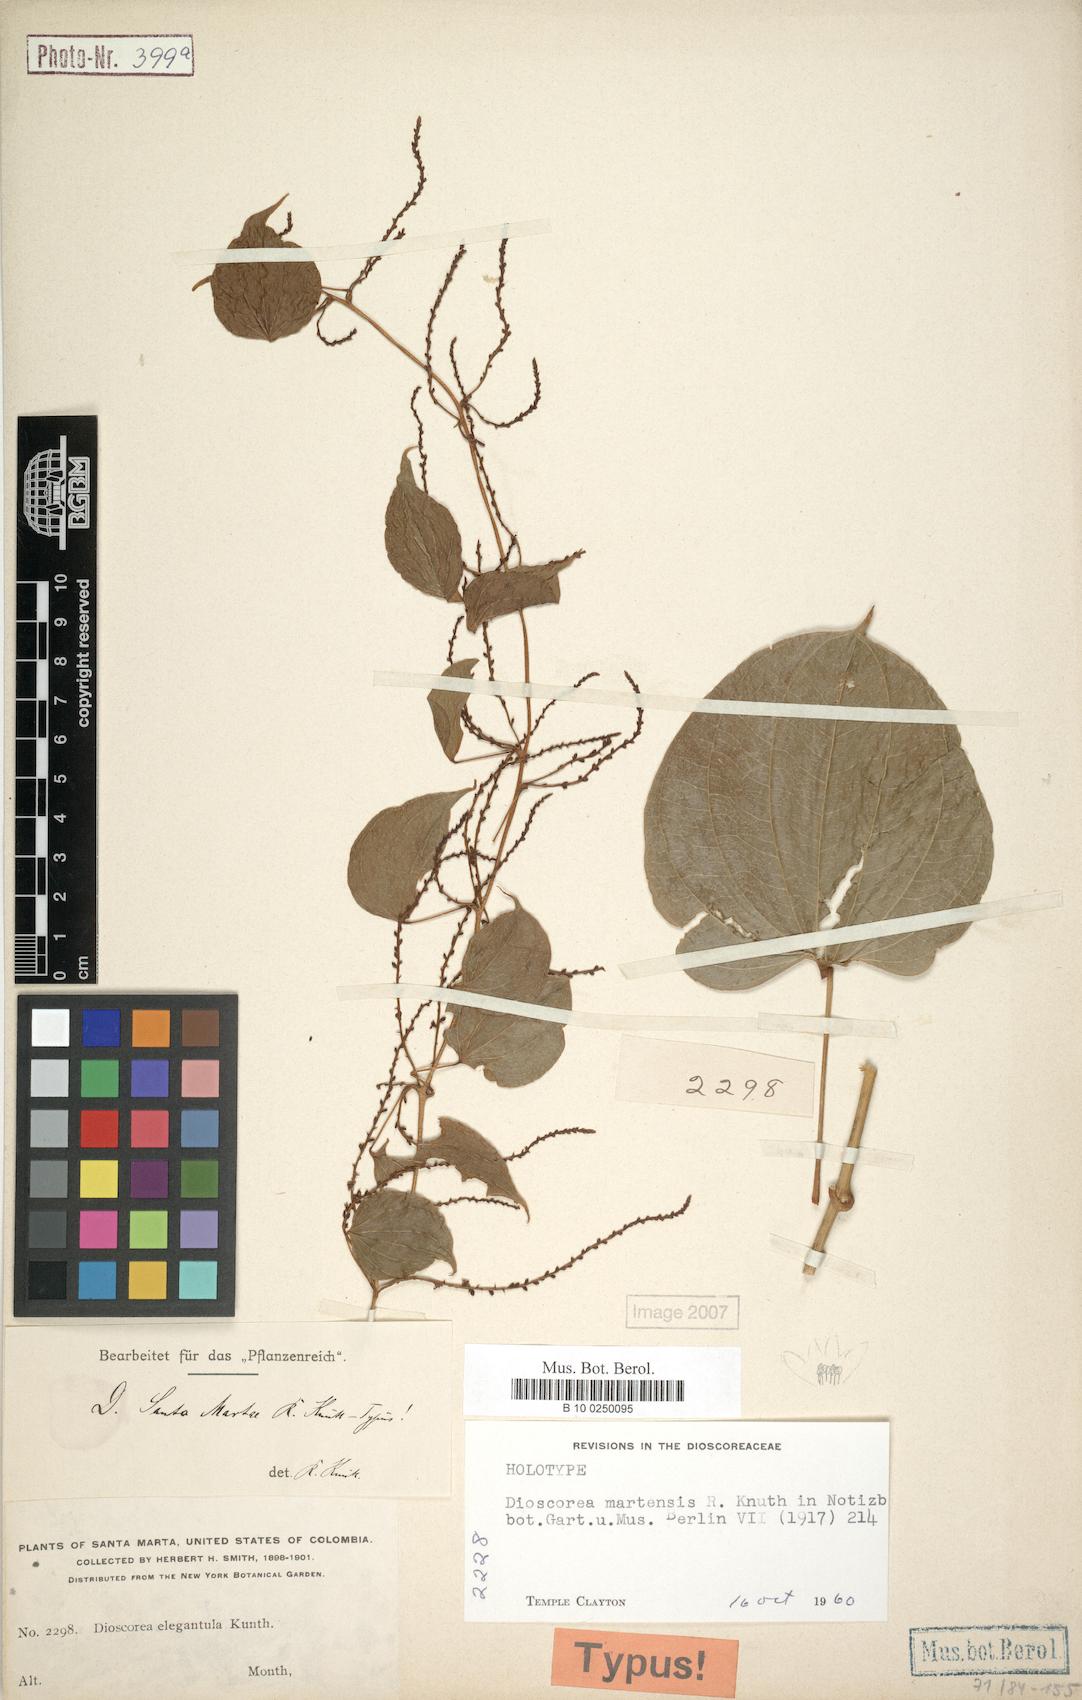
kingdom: Plantae
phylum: Tracheophyta
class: Liliopsida
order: Dioscoreales
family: Dioscoreaceae
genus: Dioscorea
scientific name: Dioscorea martensis
